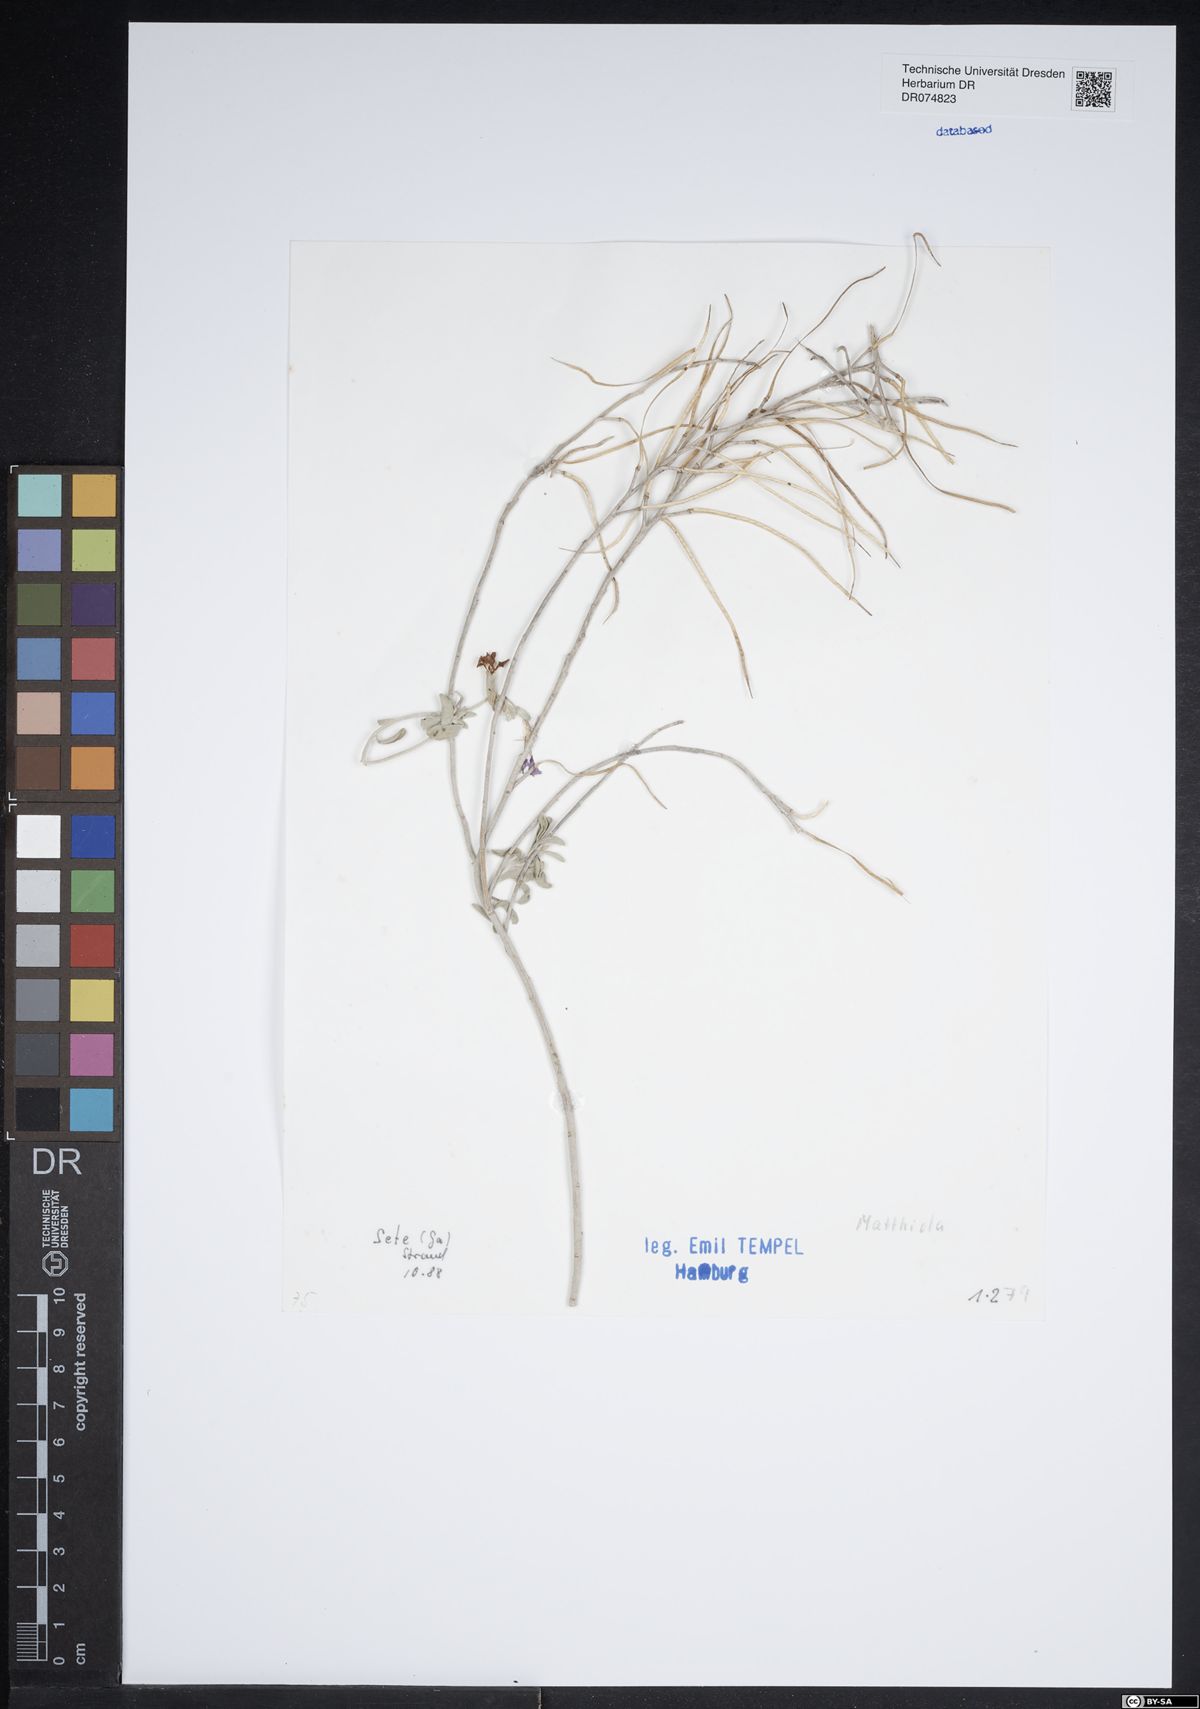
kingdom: Plantae
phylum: Tracheophyta
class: Magnoliopsida
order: Brassicales
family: Brassicaceae
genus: Matthiola
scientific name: Matthiola
